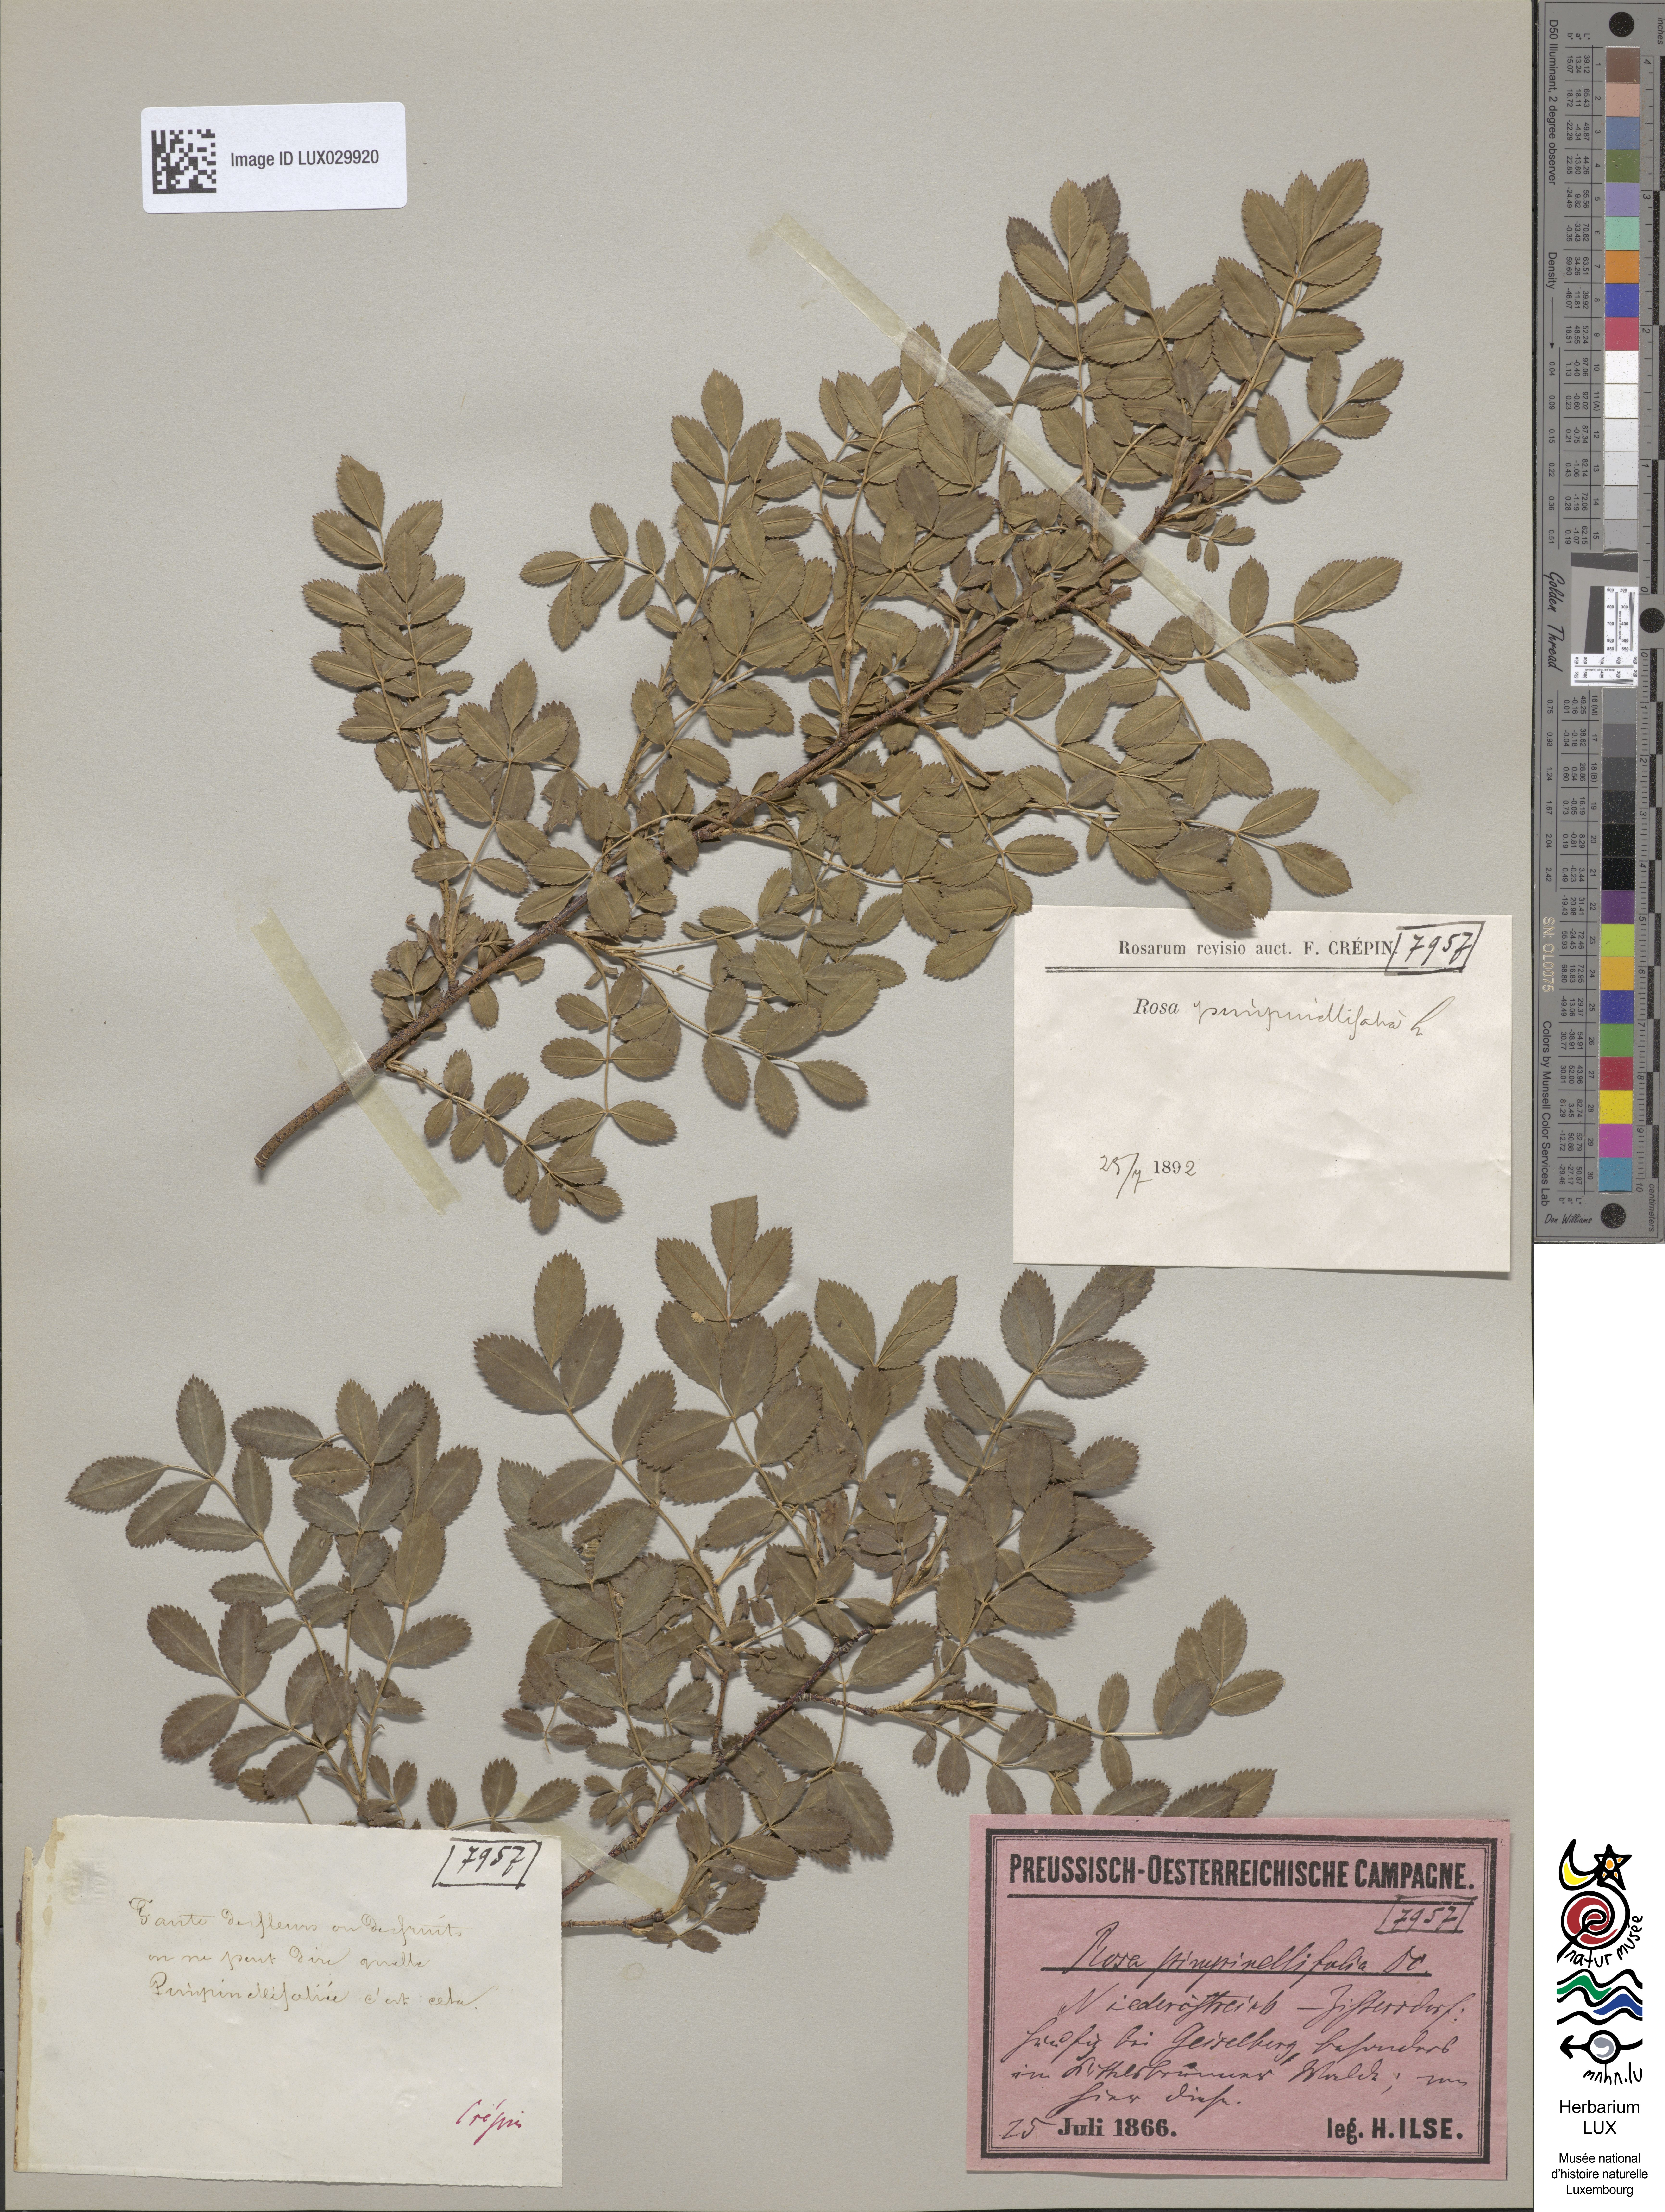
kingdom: Plantae
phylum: Tracheophyta
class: Magnoliopsida
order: Rosales
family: Rosaceae
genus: Rosa
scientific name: Rosa
